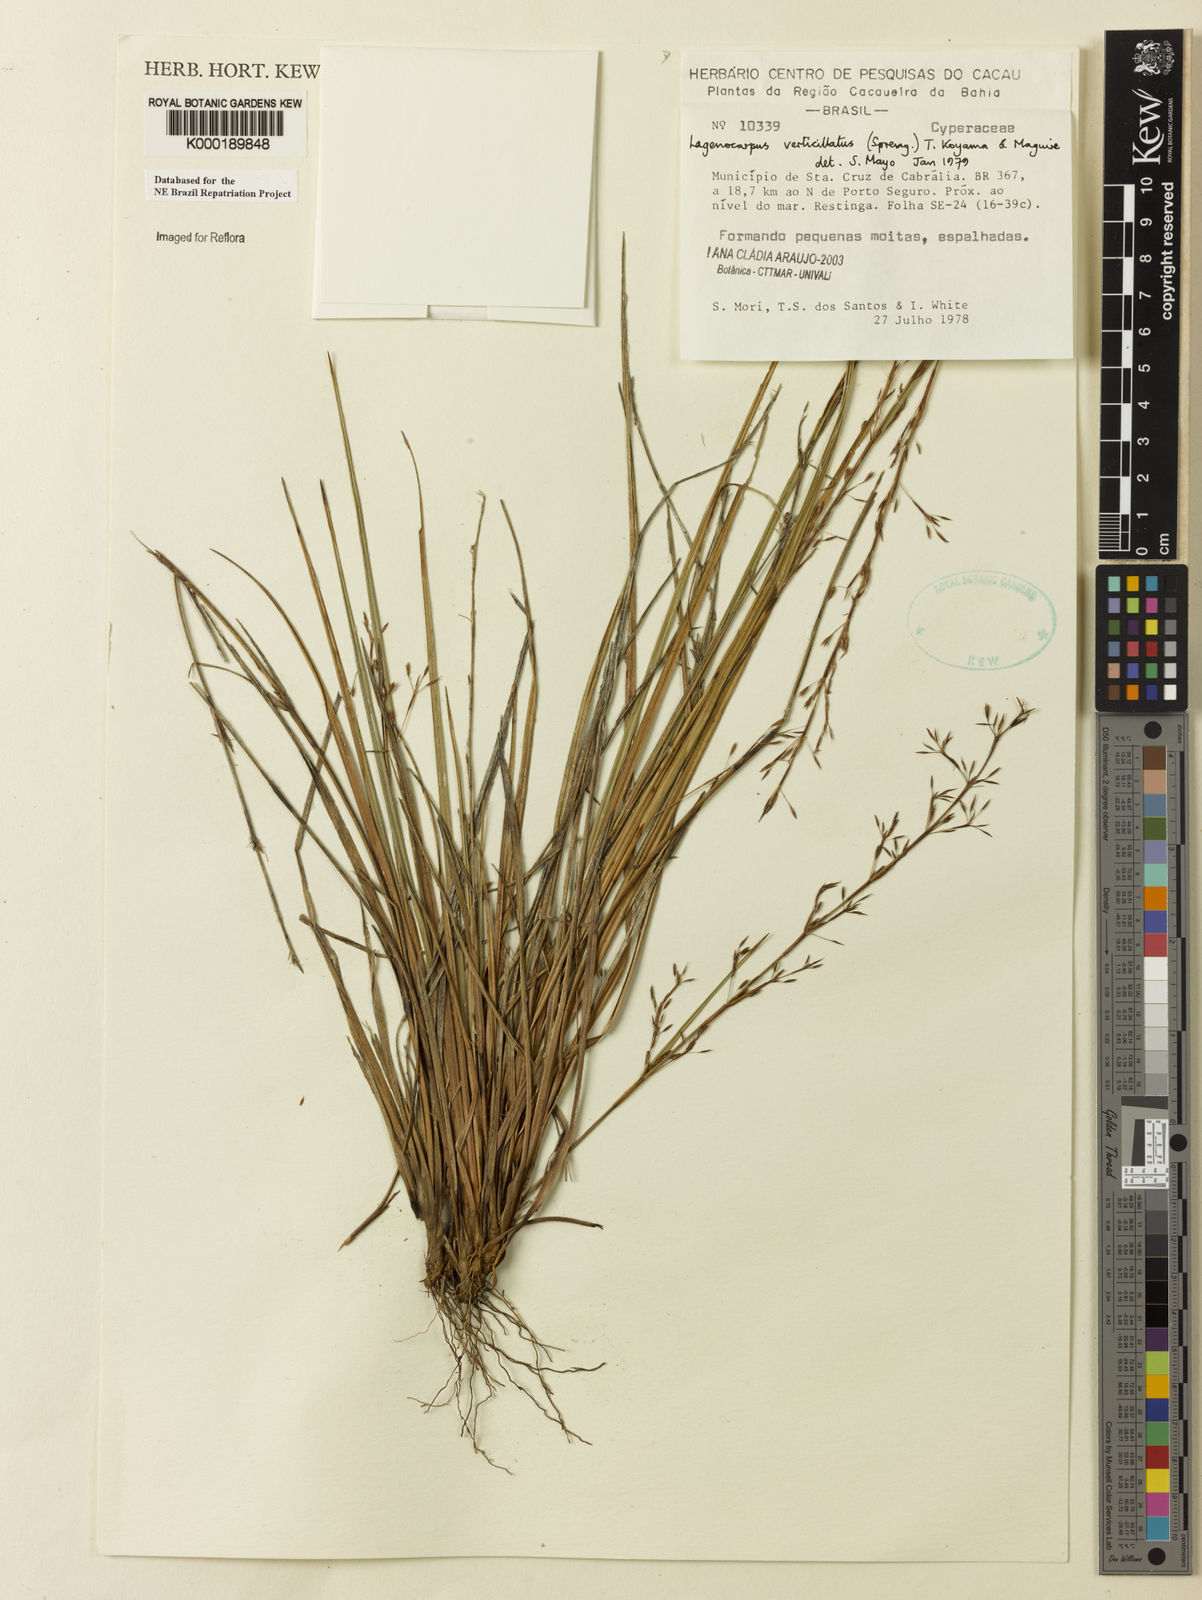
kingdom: Plantae
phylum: Tracheophyta
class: Liliopsida
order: Poales
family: Cyperaceae
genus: Cryptangium
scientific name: Cryptangium verticillatum
